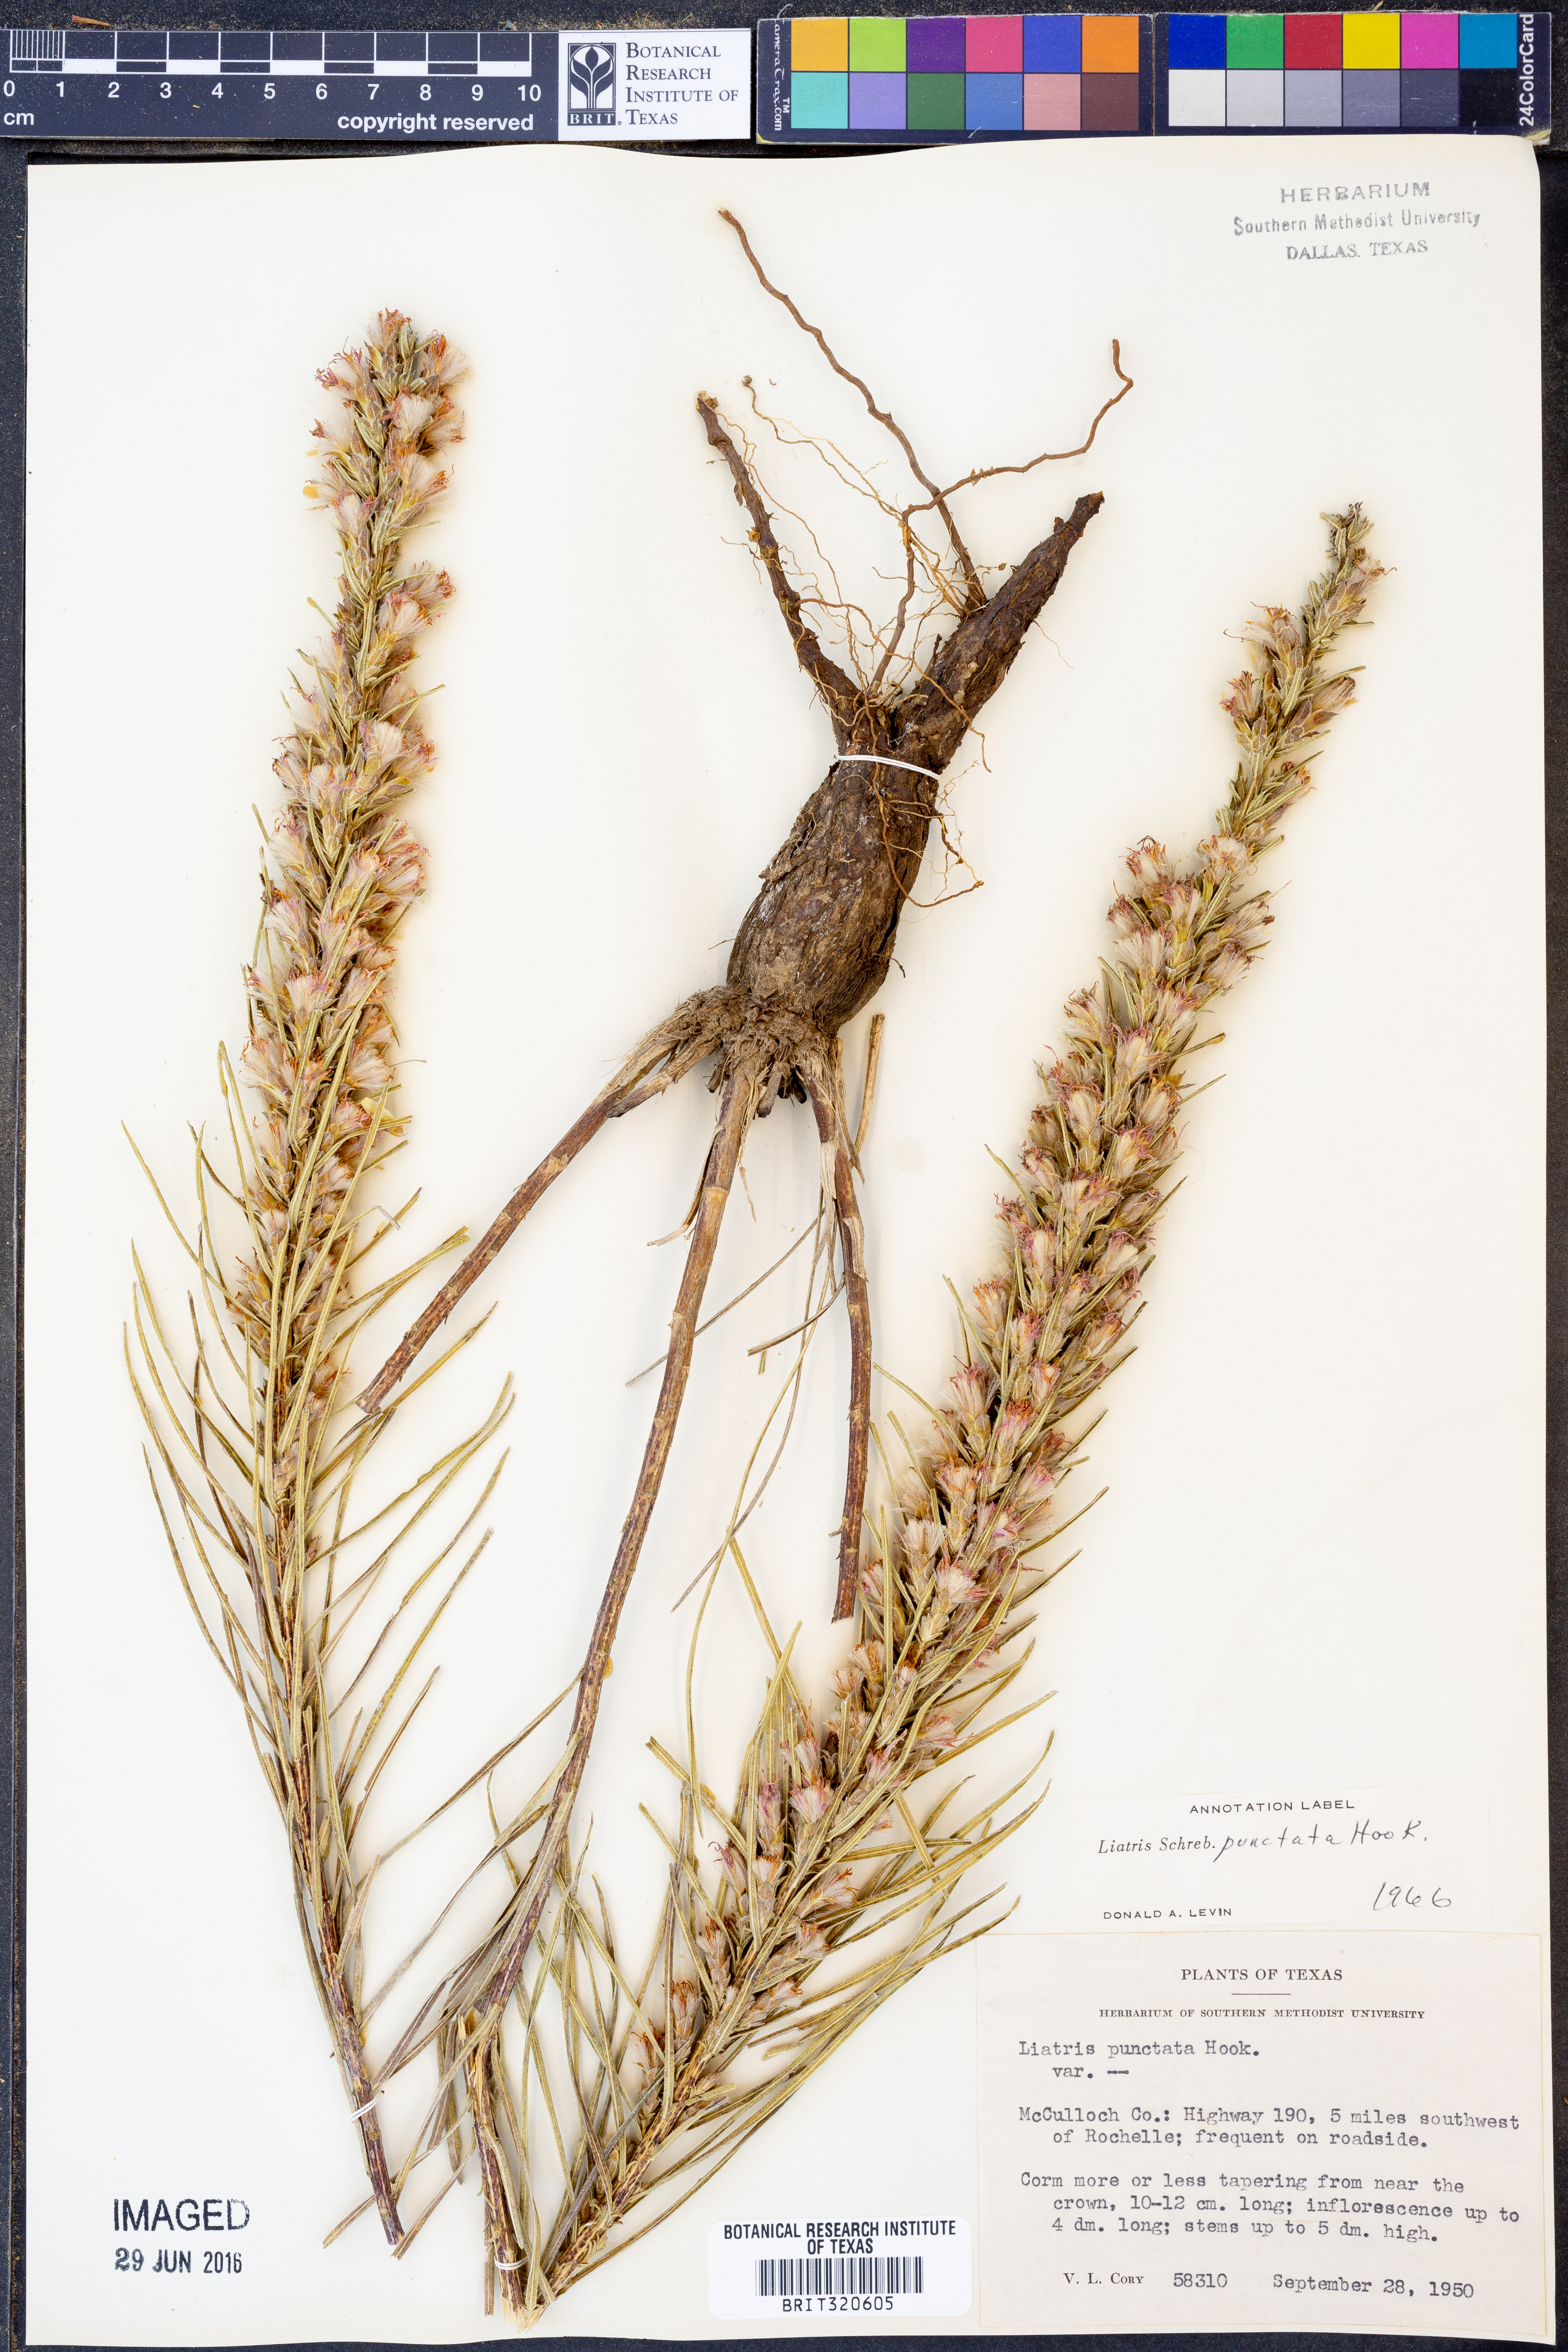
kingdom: Plantae
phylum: Tracheophyta
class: Magnoliopsida
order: Asterales
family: Asteraceae
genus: Liatris
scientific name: Liatris punctata
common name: Dotted gayfeather
